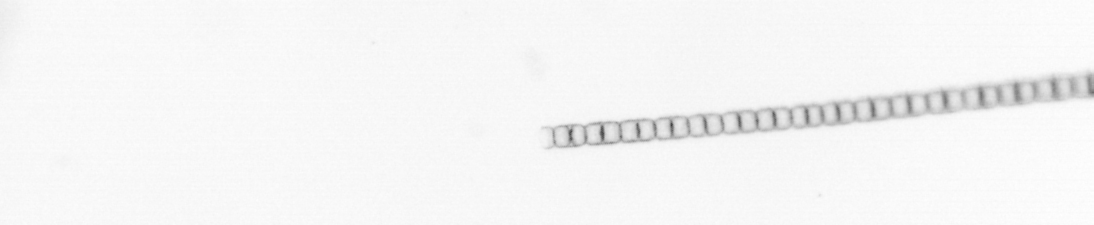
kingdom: Chromista
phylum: Ochrophyta
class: Bacillariophyceae
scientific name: Bacillariophyceae
